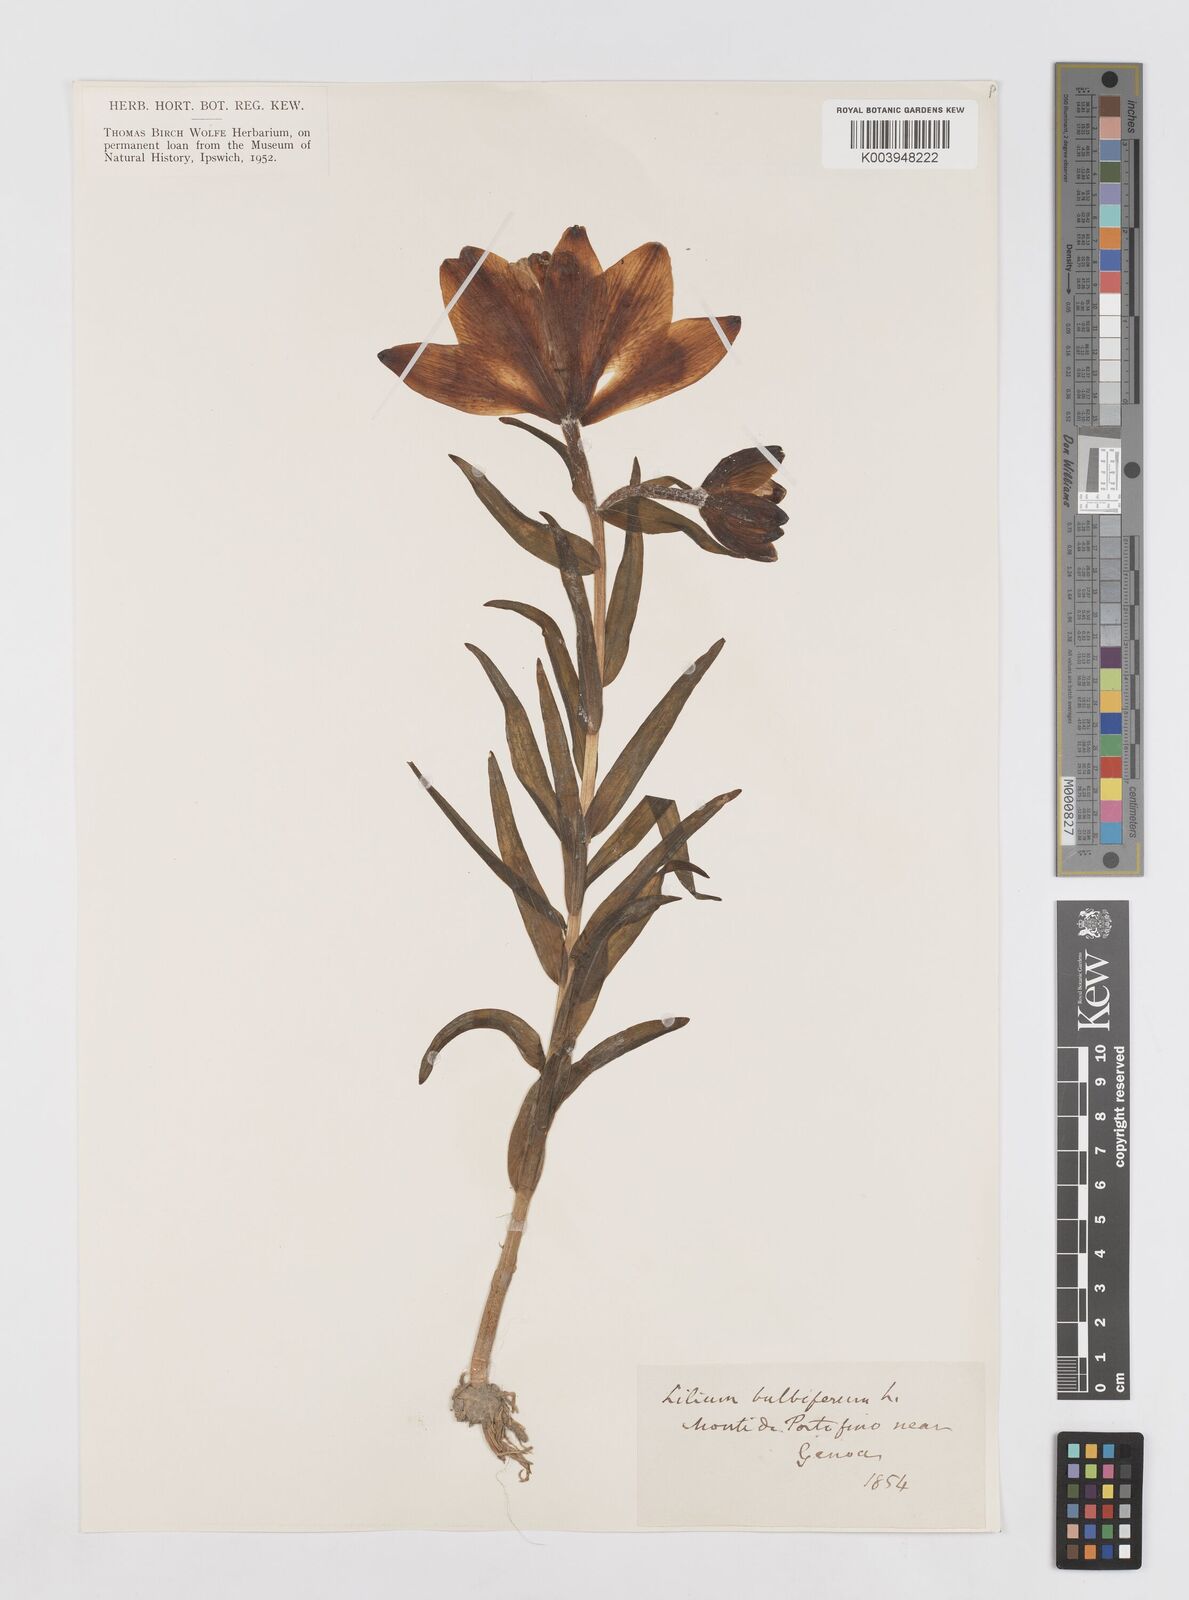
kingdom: Plantae
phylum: Tracheophyta
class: Liliopsida
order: Liliales
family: Liliaceae
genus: Lilium
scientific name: Lilium bulbiferum
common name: Orange lily
